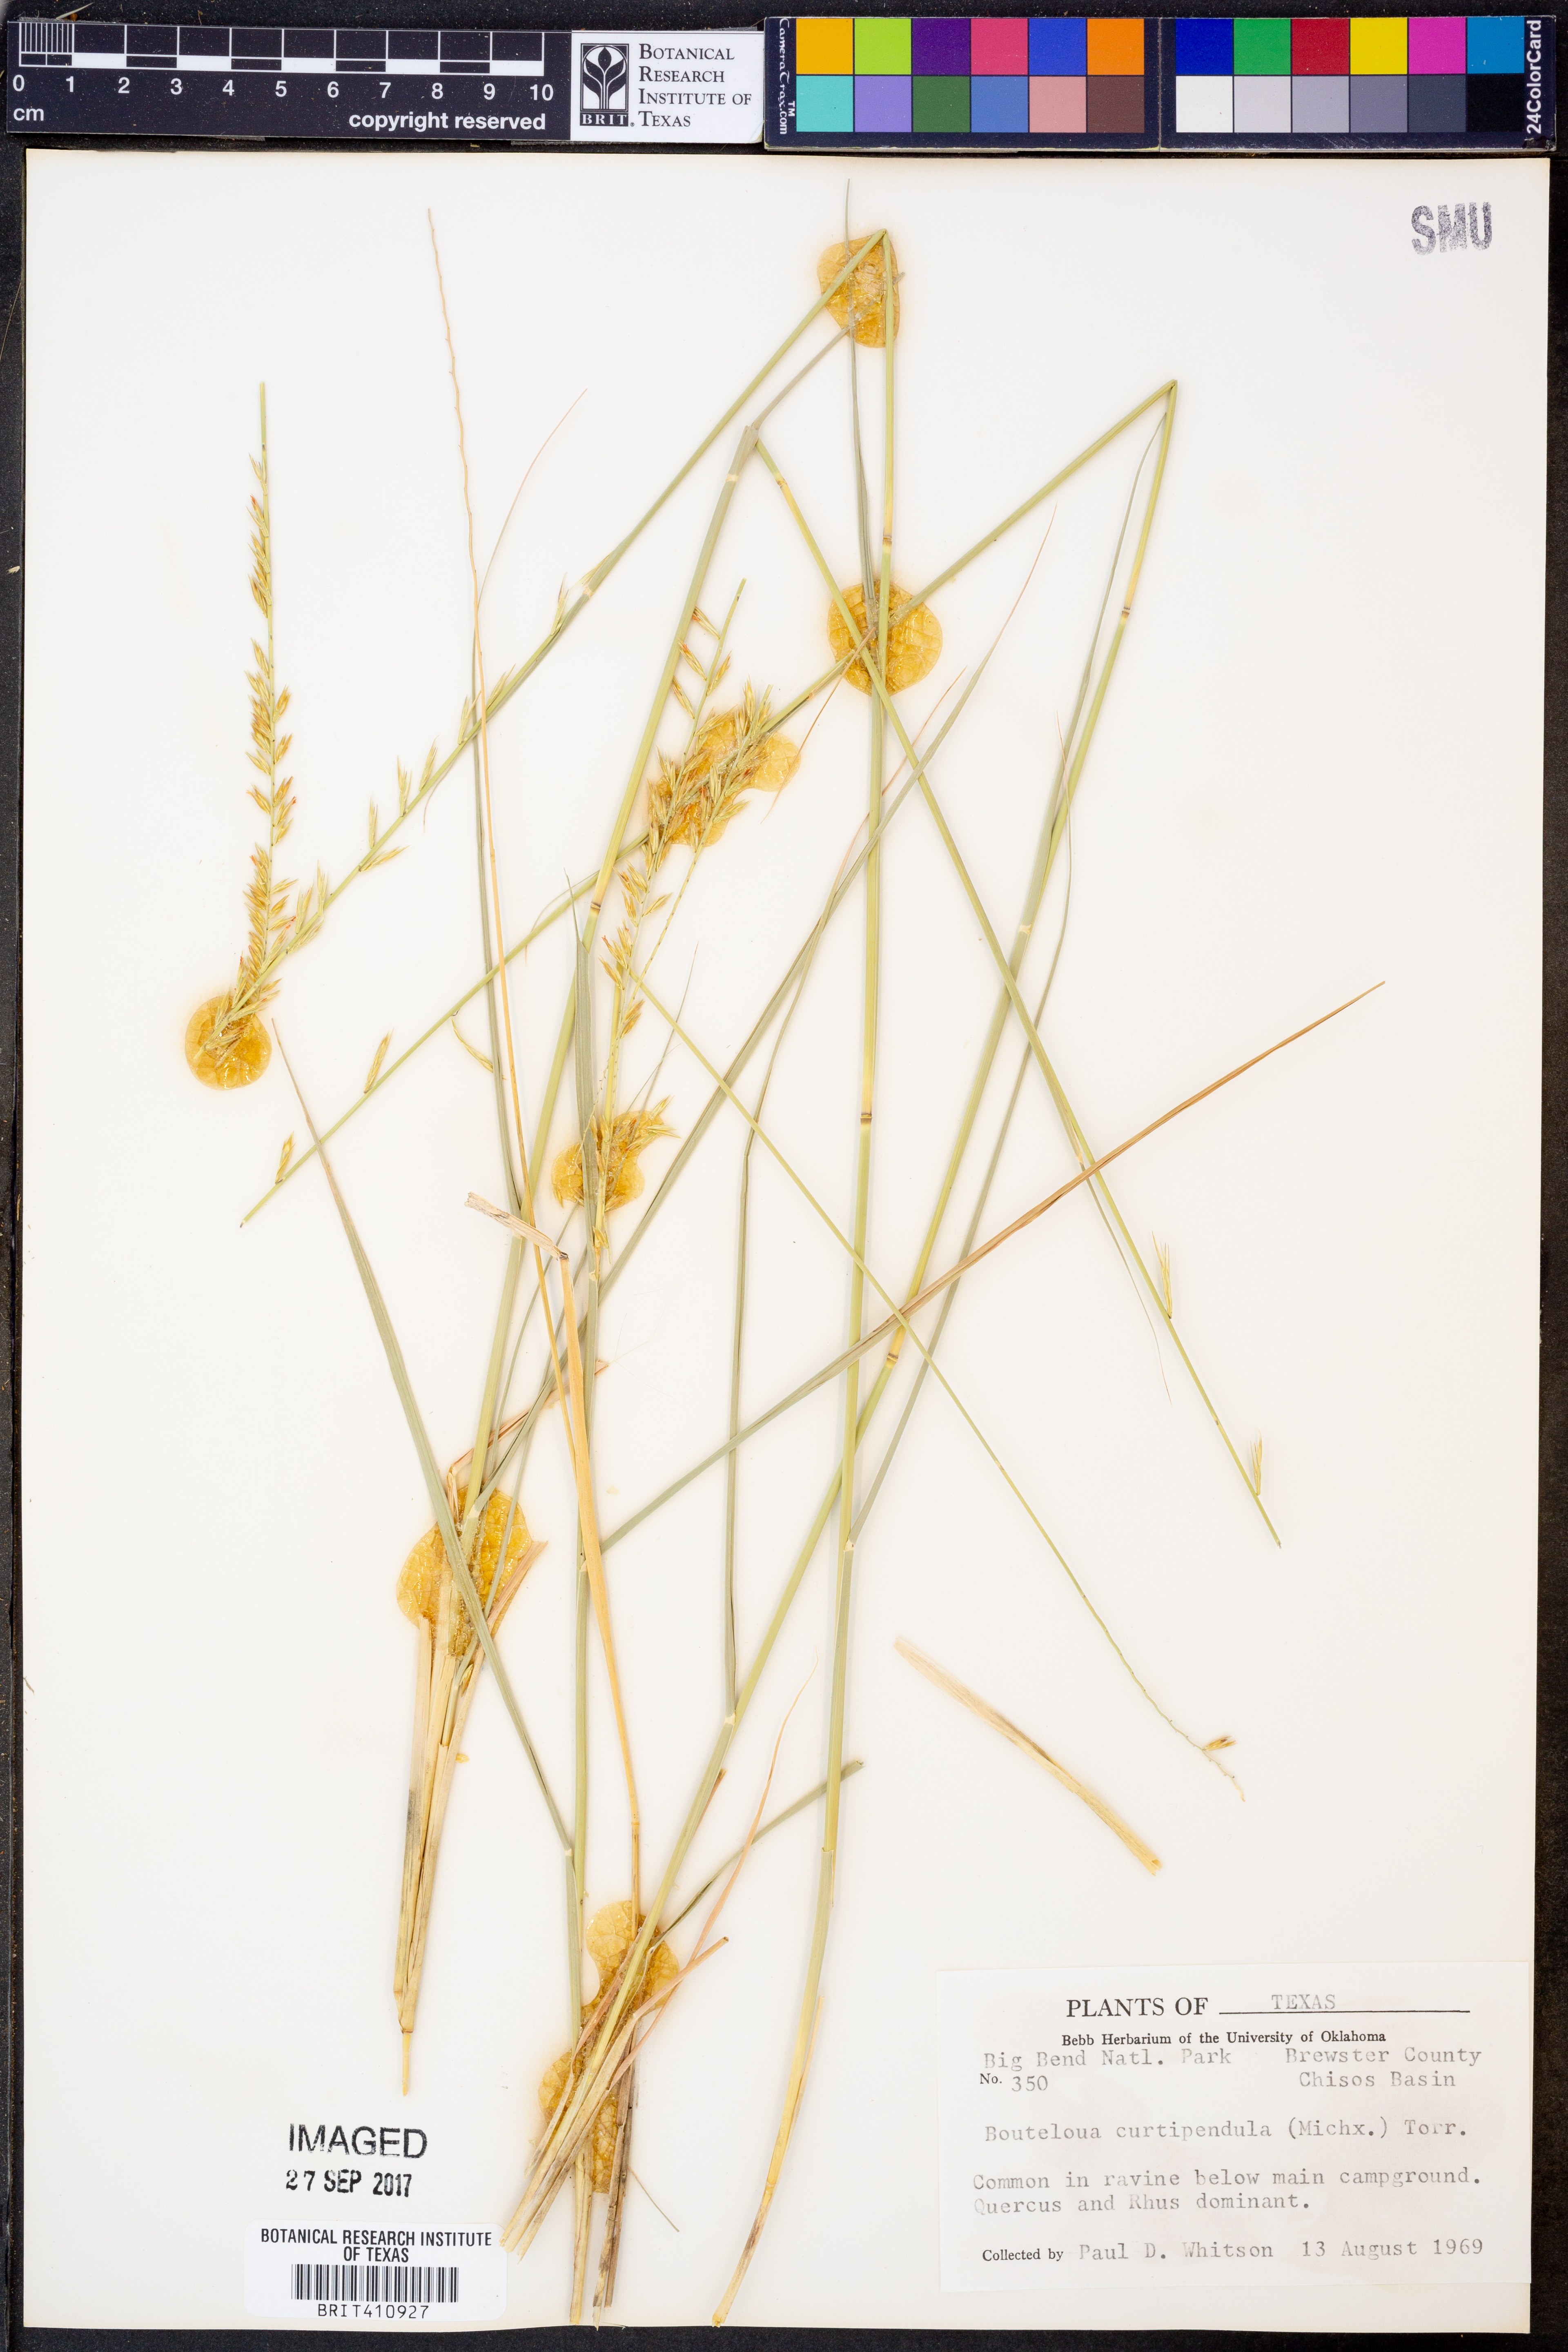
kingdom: Plantae
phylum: Tracheophyta
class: Liliopsida
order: Poales
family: Poaceae
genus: Bouteloua
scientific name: Bouteloua curtipendula
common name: Side-oats grama
